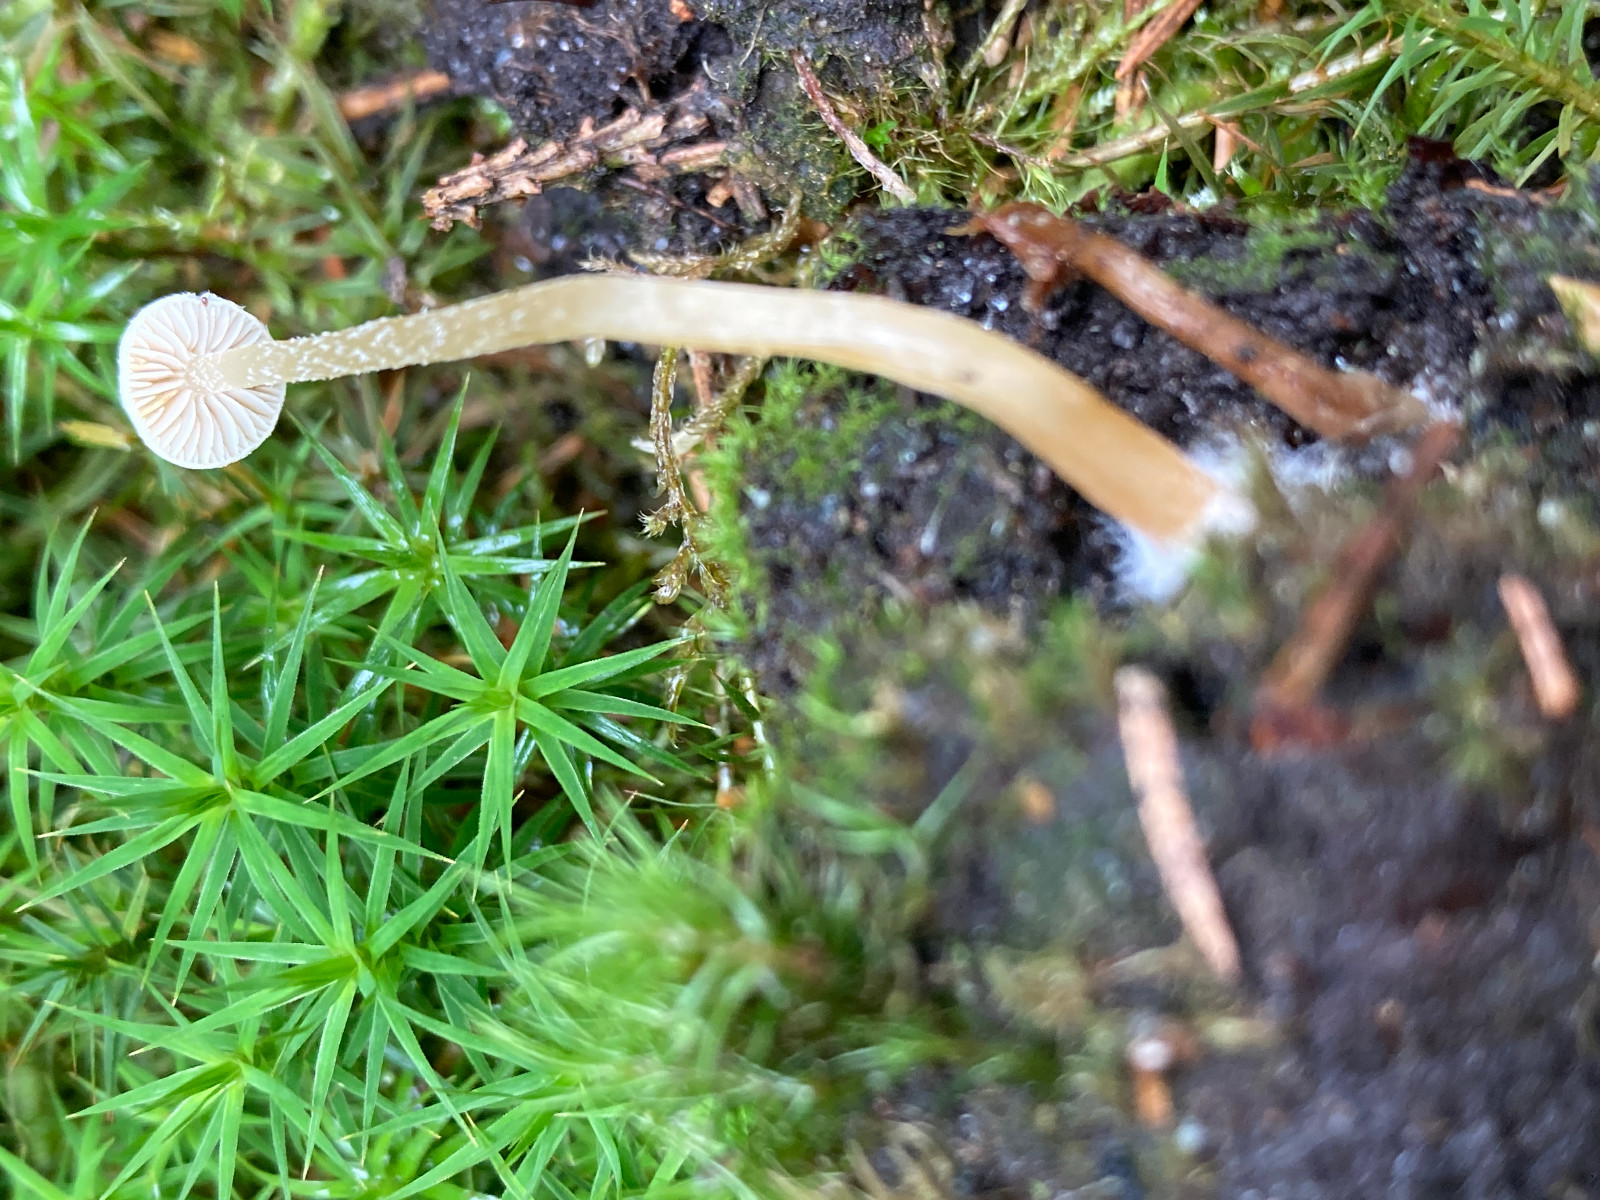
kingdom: Fungi
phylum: Basidiomycota
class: Agaricomycetes
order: Agaricales
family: Strophariaceae
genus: Hypholoma
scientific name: Hypholoma elongatum
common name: slank svovlhat
